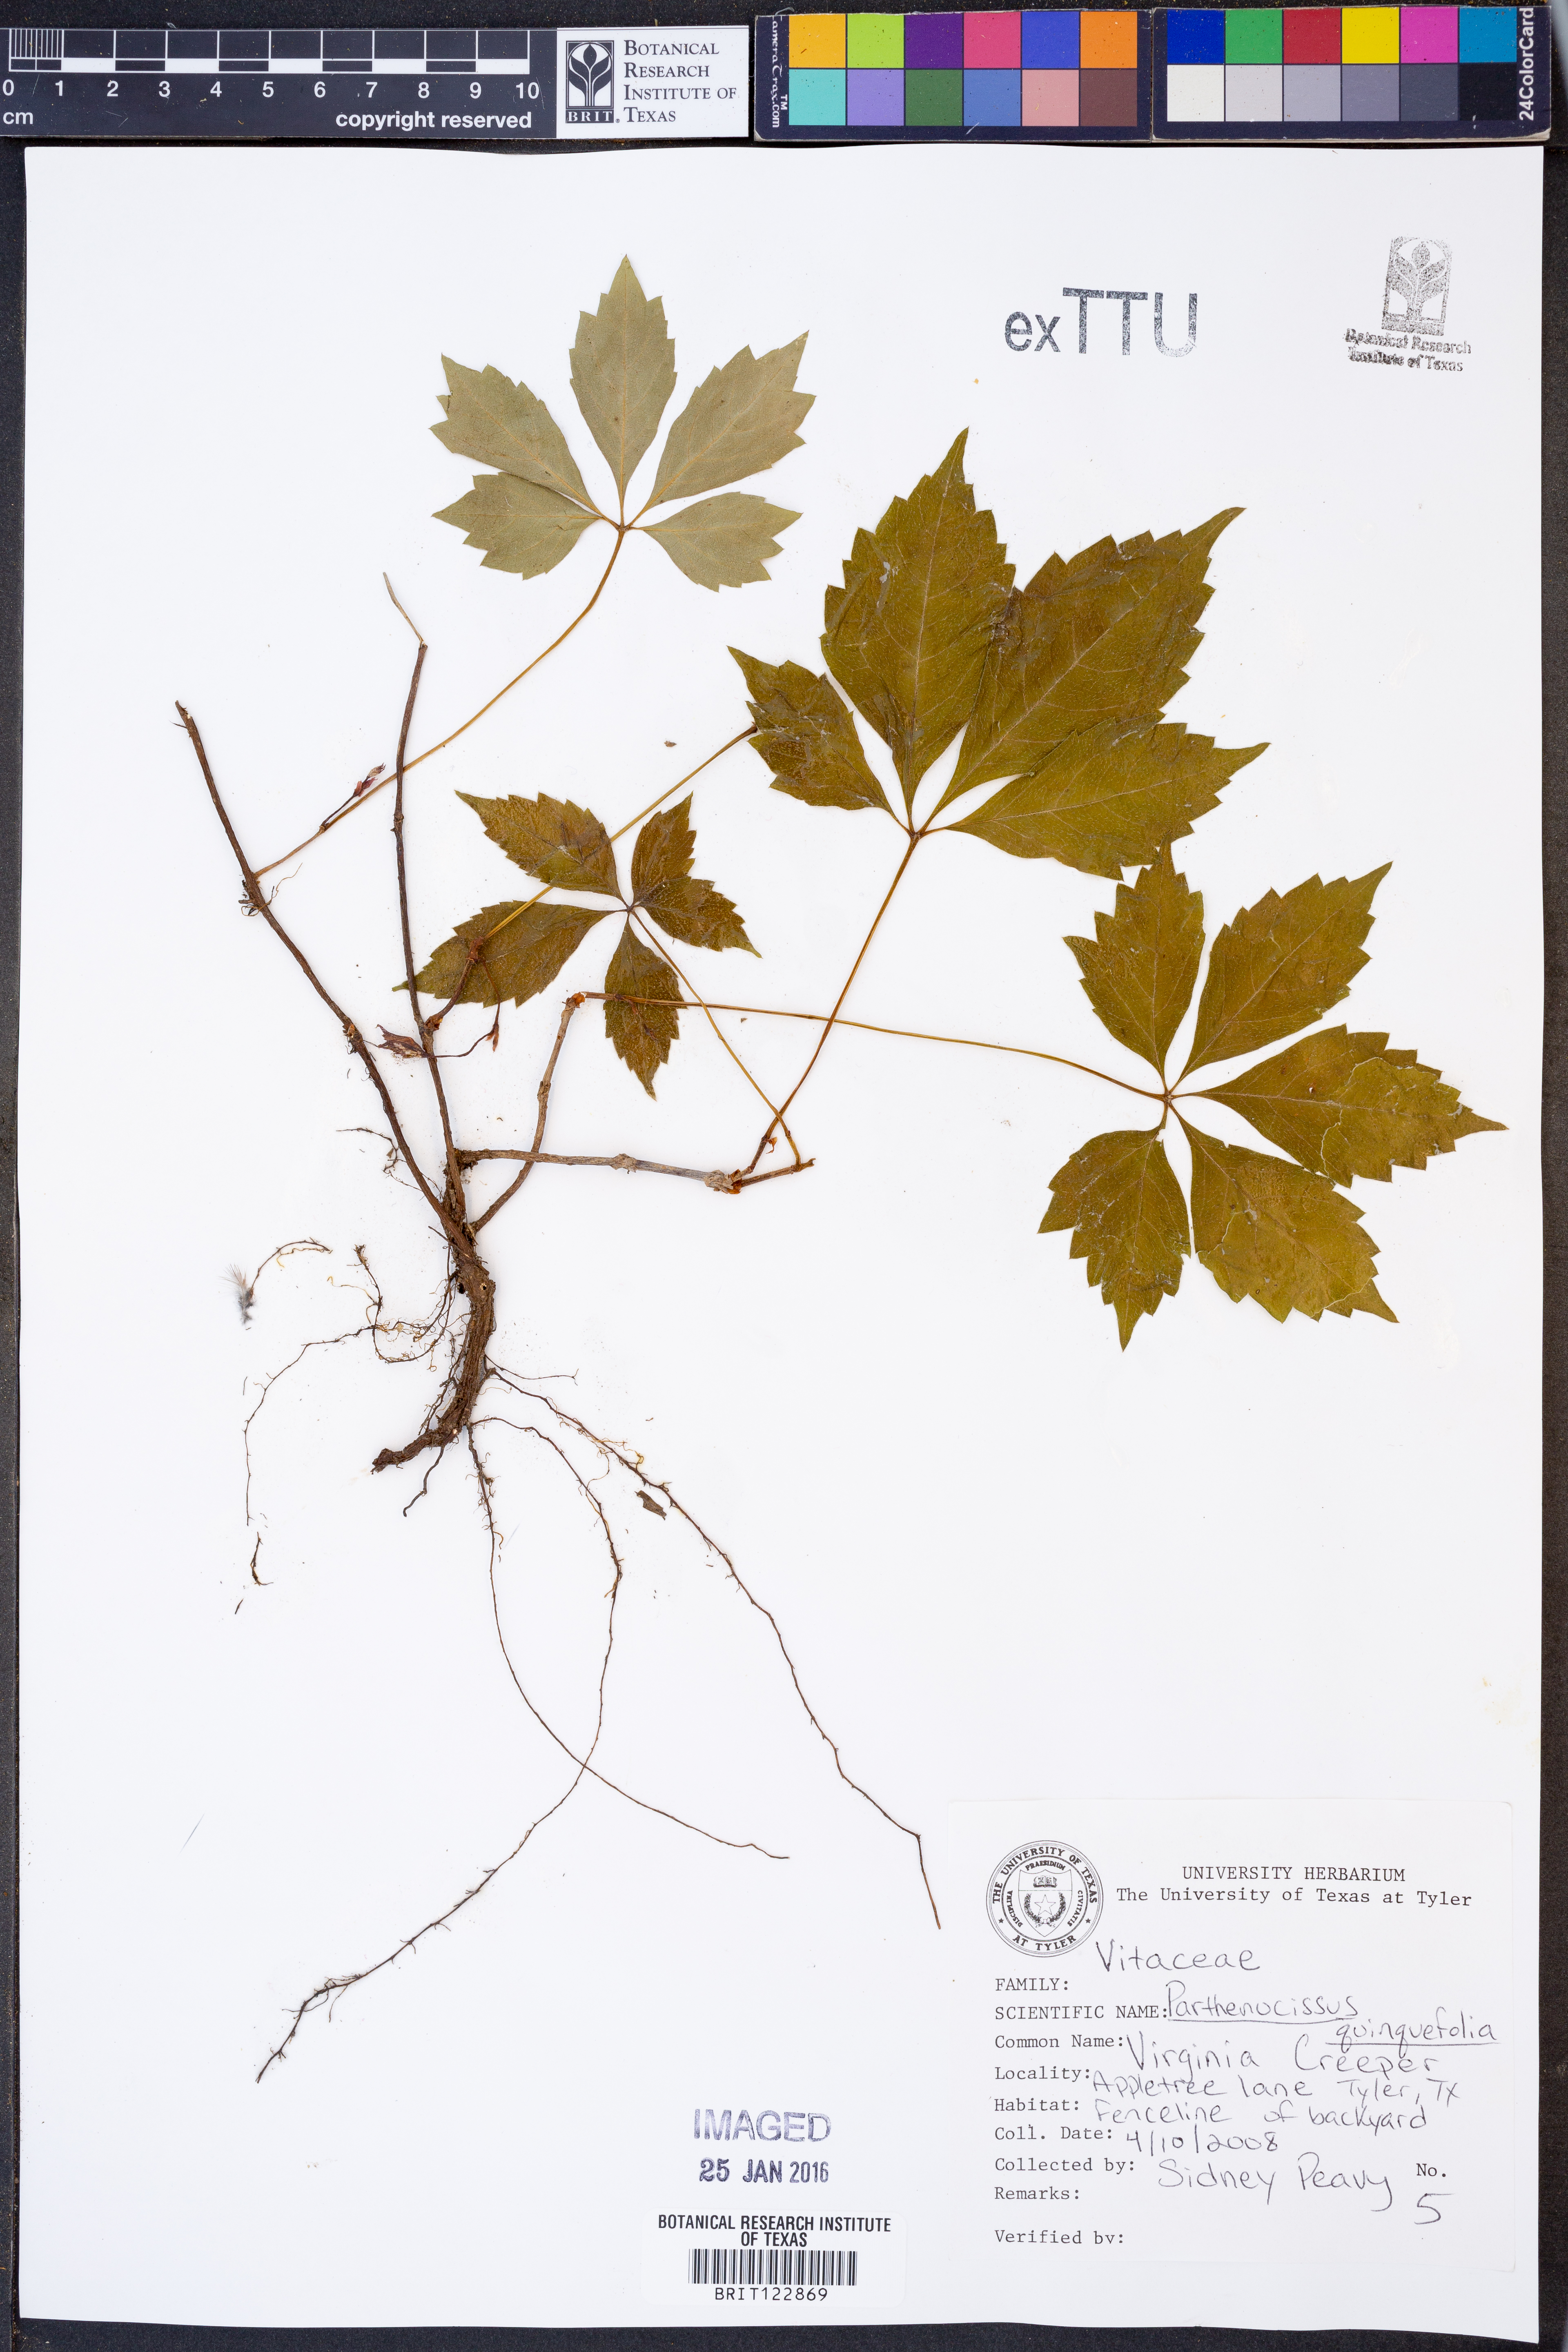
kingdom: Plantae
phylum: Tracheophyta
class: Magnoliopsida
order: Vitales
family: Vitaceae
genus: Parthenocissus
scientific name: Parthenocissus quinquefolia
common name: Virginia-creeper
